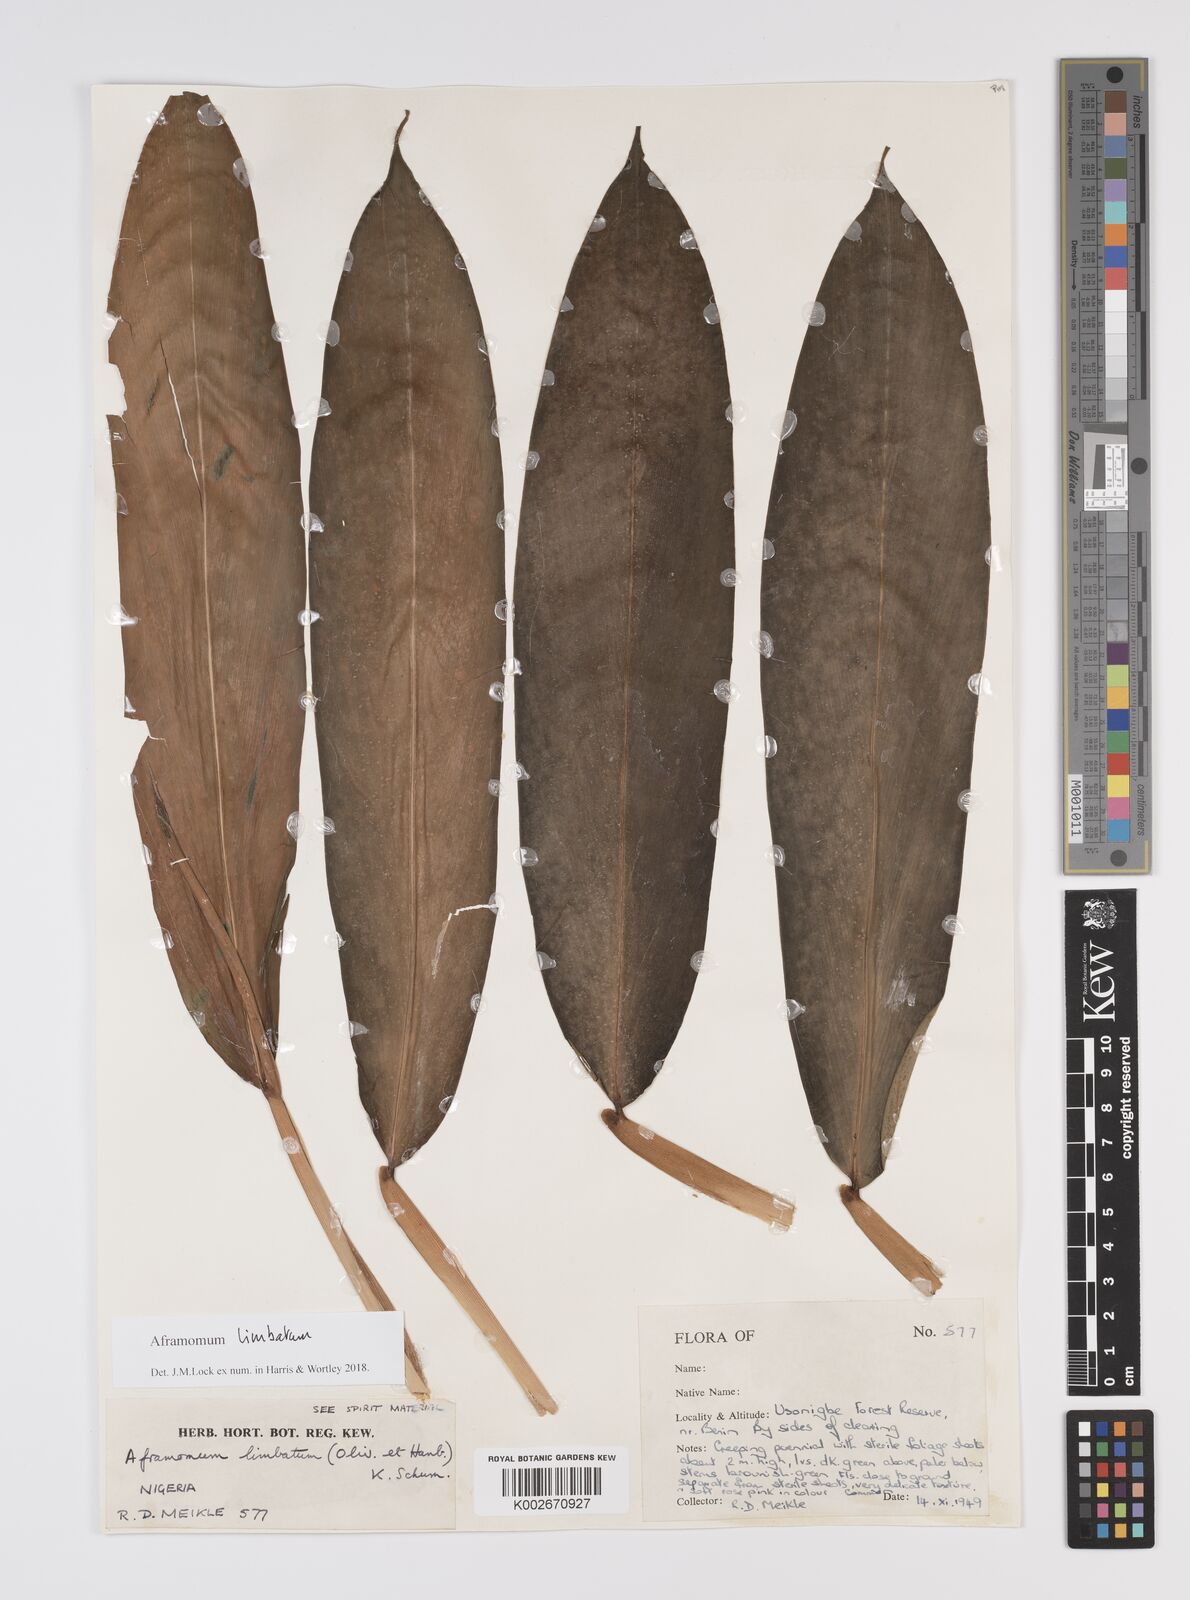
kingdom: Plantae
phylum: Tracheophyta
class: Liliopsida
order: Zingiberales
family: Zingiberaceae
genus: Aframomum
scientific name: Aframomum limbatum
